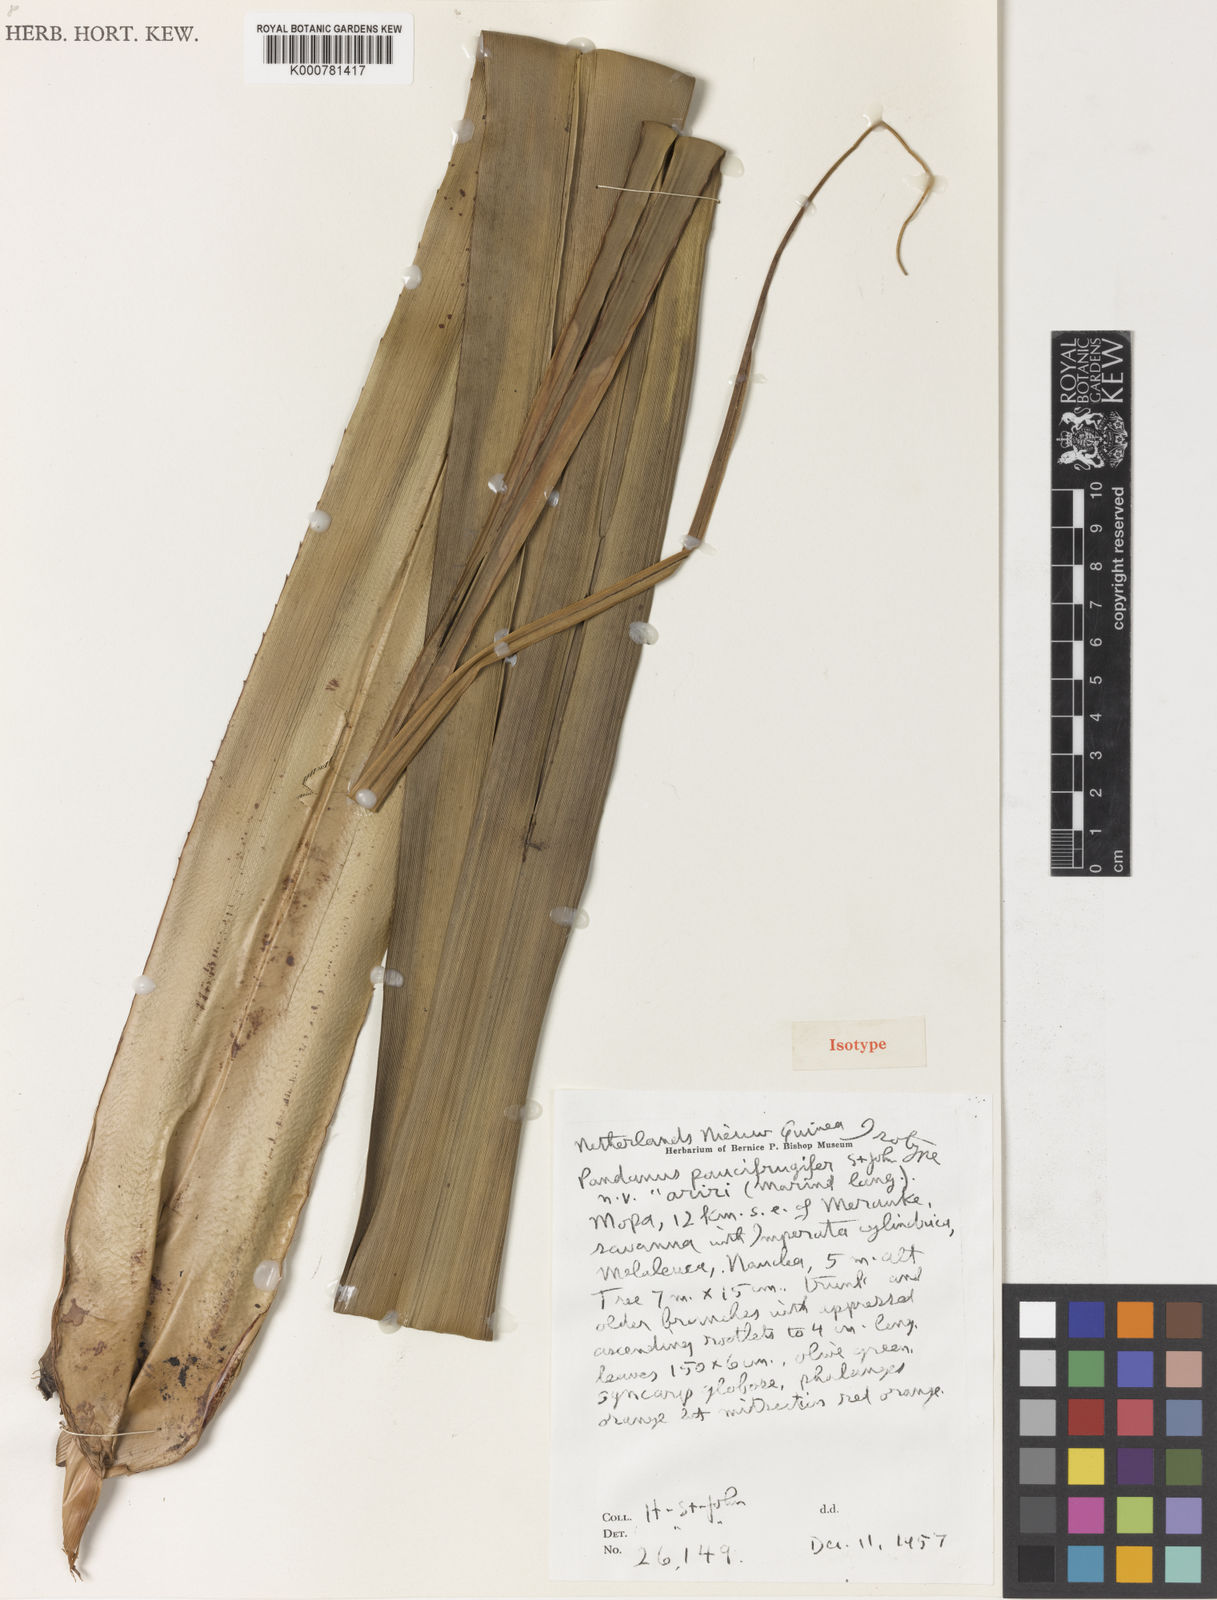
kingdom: Plantae
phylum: Tracheophyta
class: Liliopsida
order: Pandanales
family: Pandanaceae
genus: Pandanus
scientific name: Pandanus
